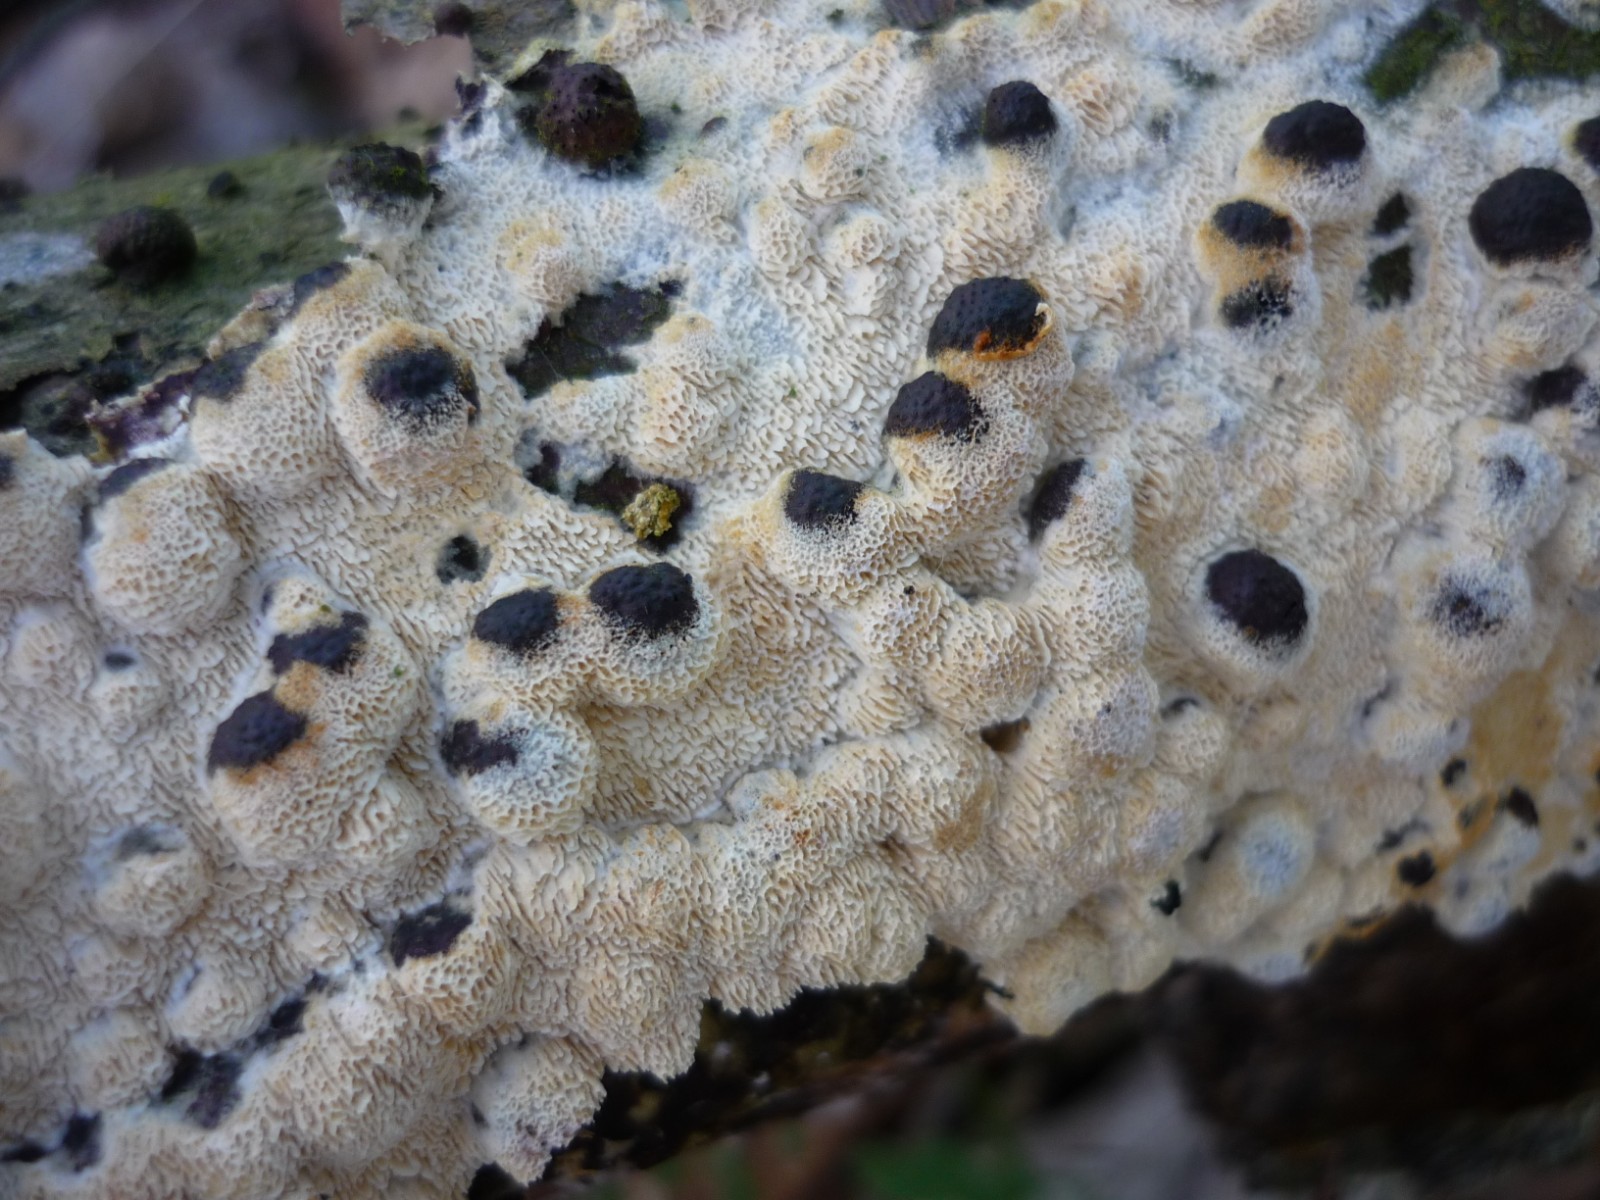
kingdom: Fungi
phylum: Basidiomycota
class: Agaricomycetes
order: Hymenochaetales
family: Schizoporaceae
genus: Xylodon
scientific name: Xylodon subtropicus
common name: labyrint-tandsvamp
